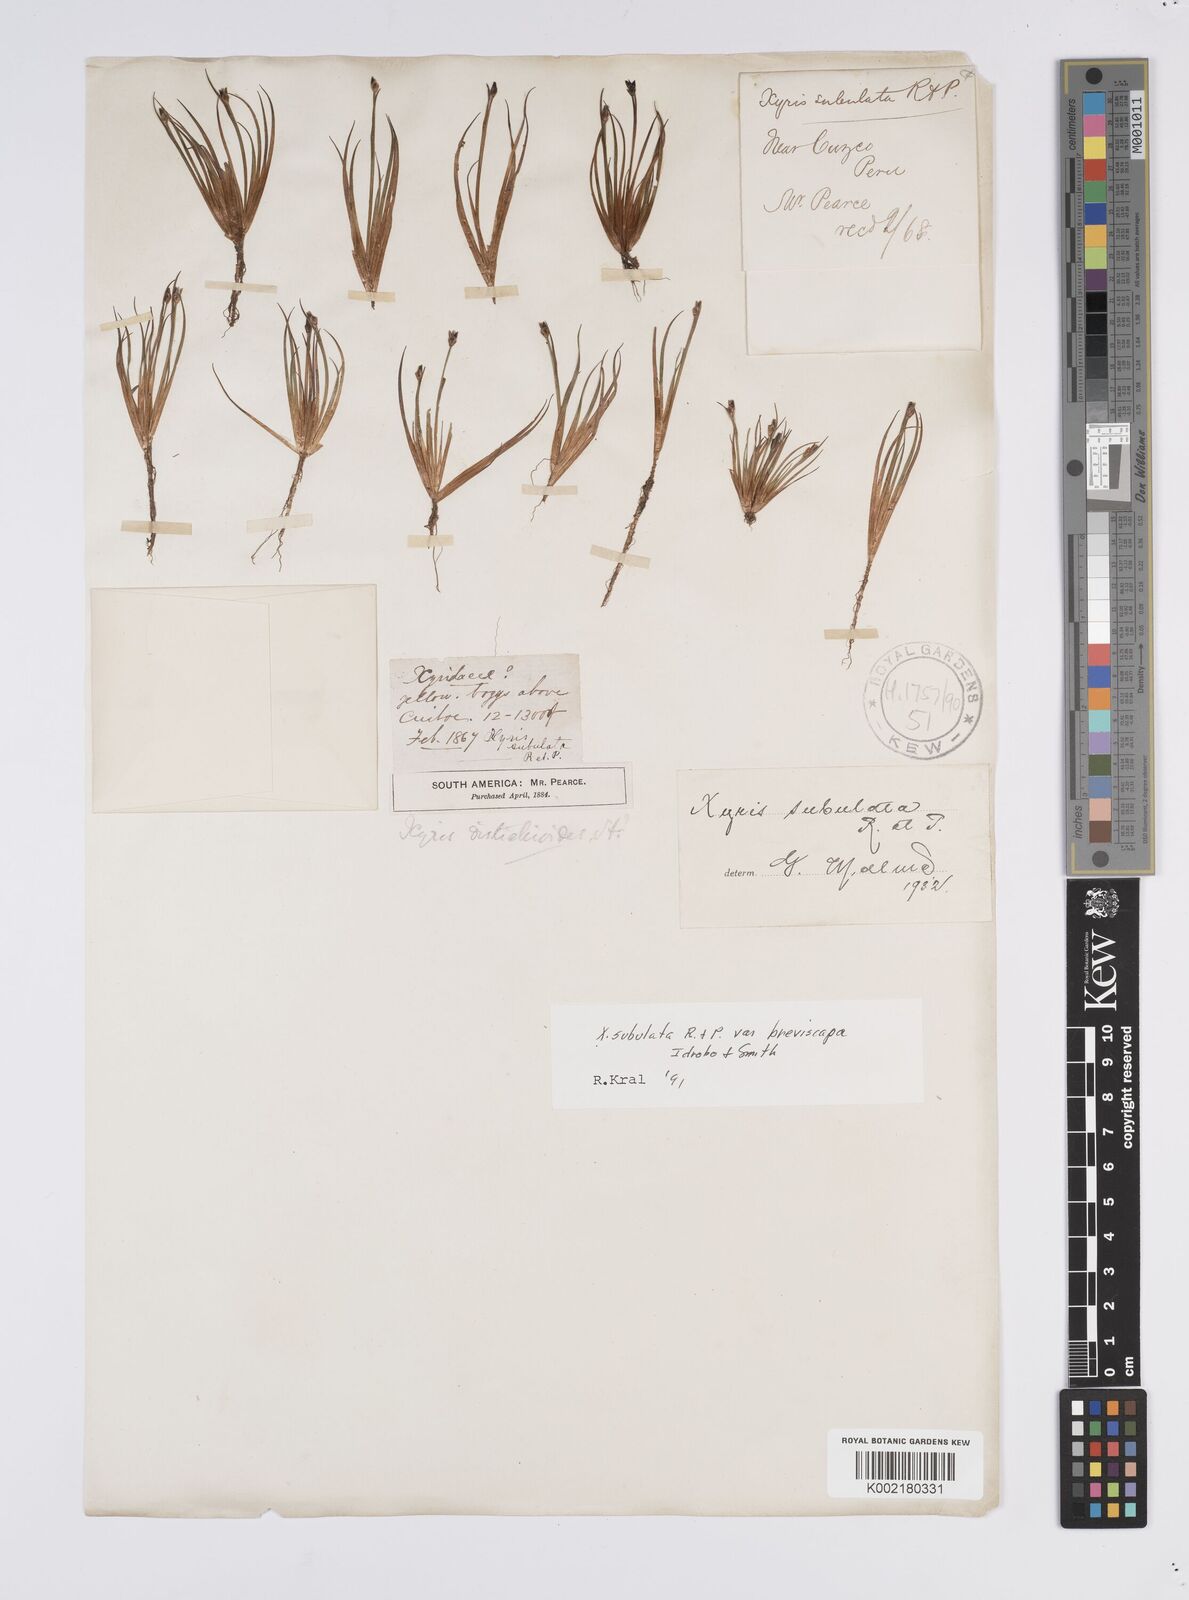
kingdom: Plantae
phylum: Tracheophyta
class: Liliopsida
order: Poales
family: Xyridaceae
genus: Xyris
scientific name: Xyris subulata
